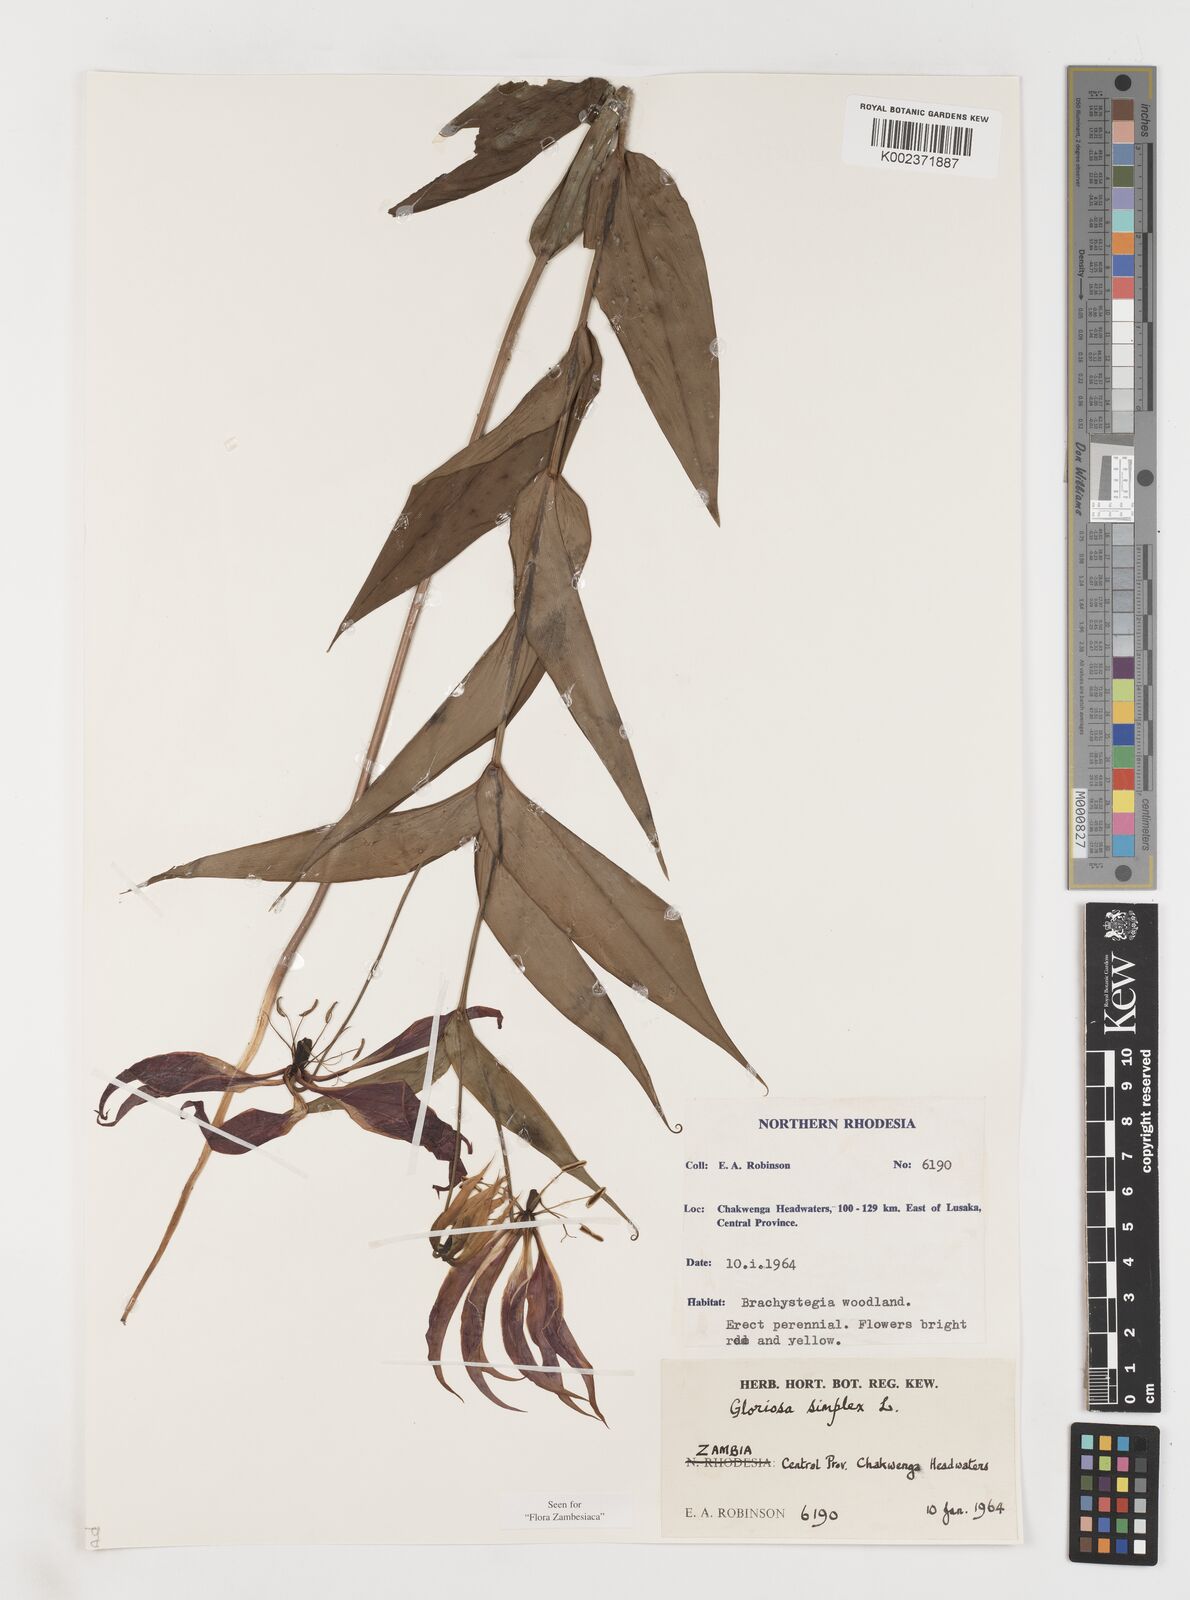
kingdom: Plantae
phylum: Tracheophyta
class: Liliopsida
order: Liliales
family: Colchicaceae
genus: Gloriosa
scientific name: Gloriosa simplex
